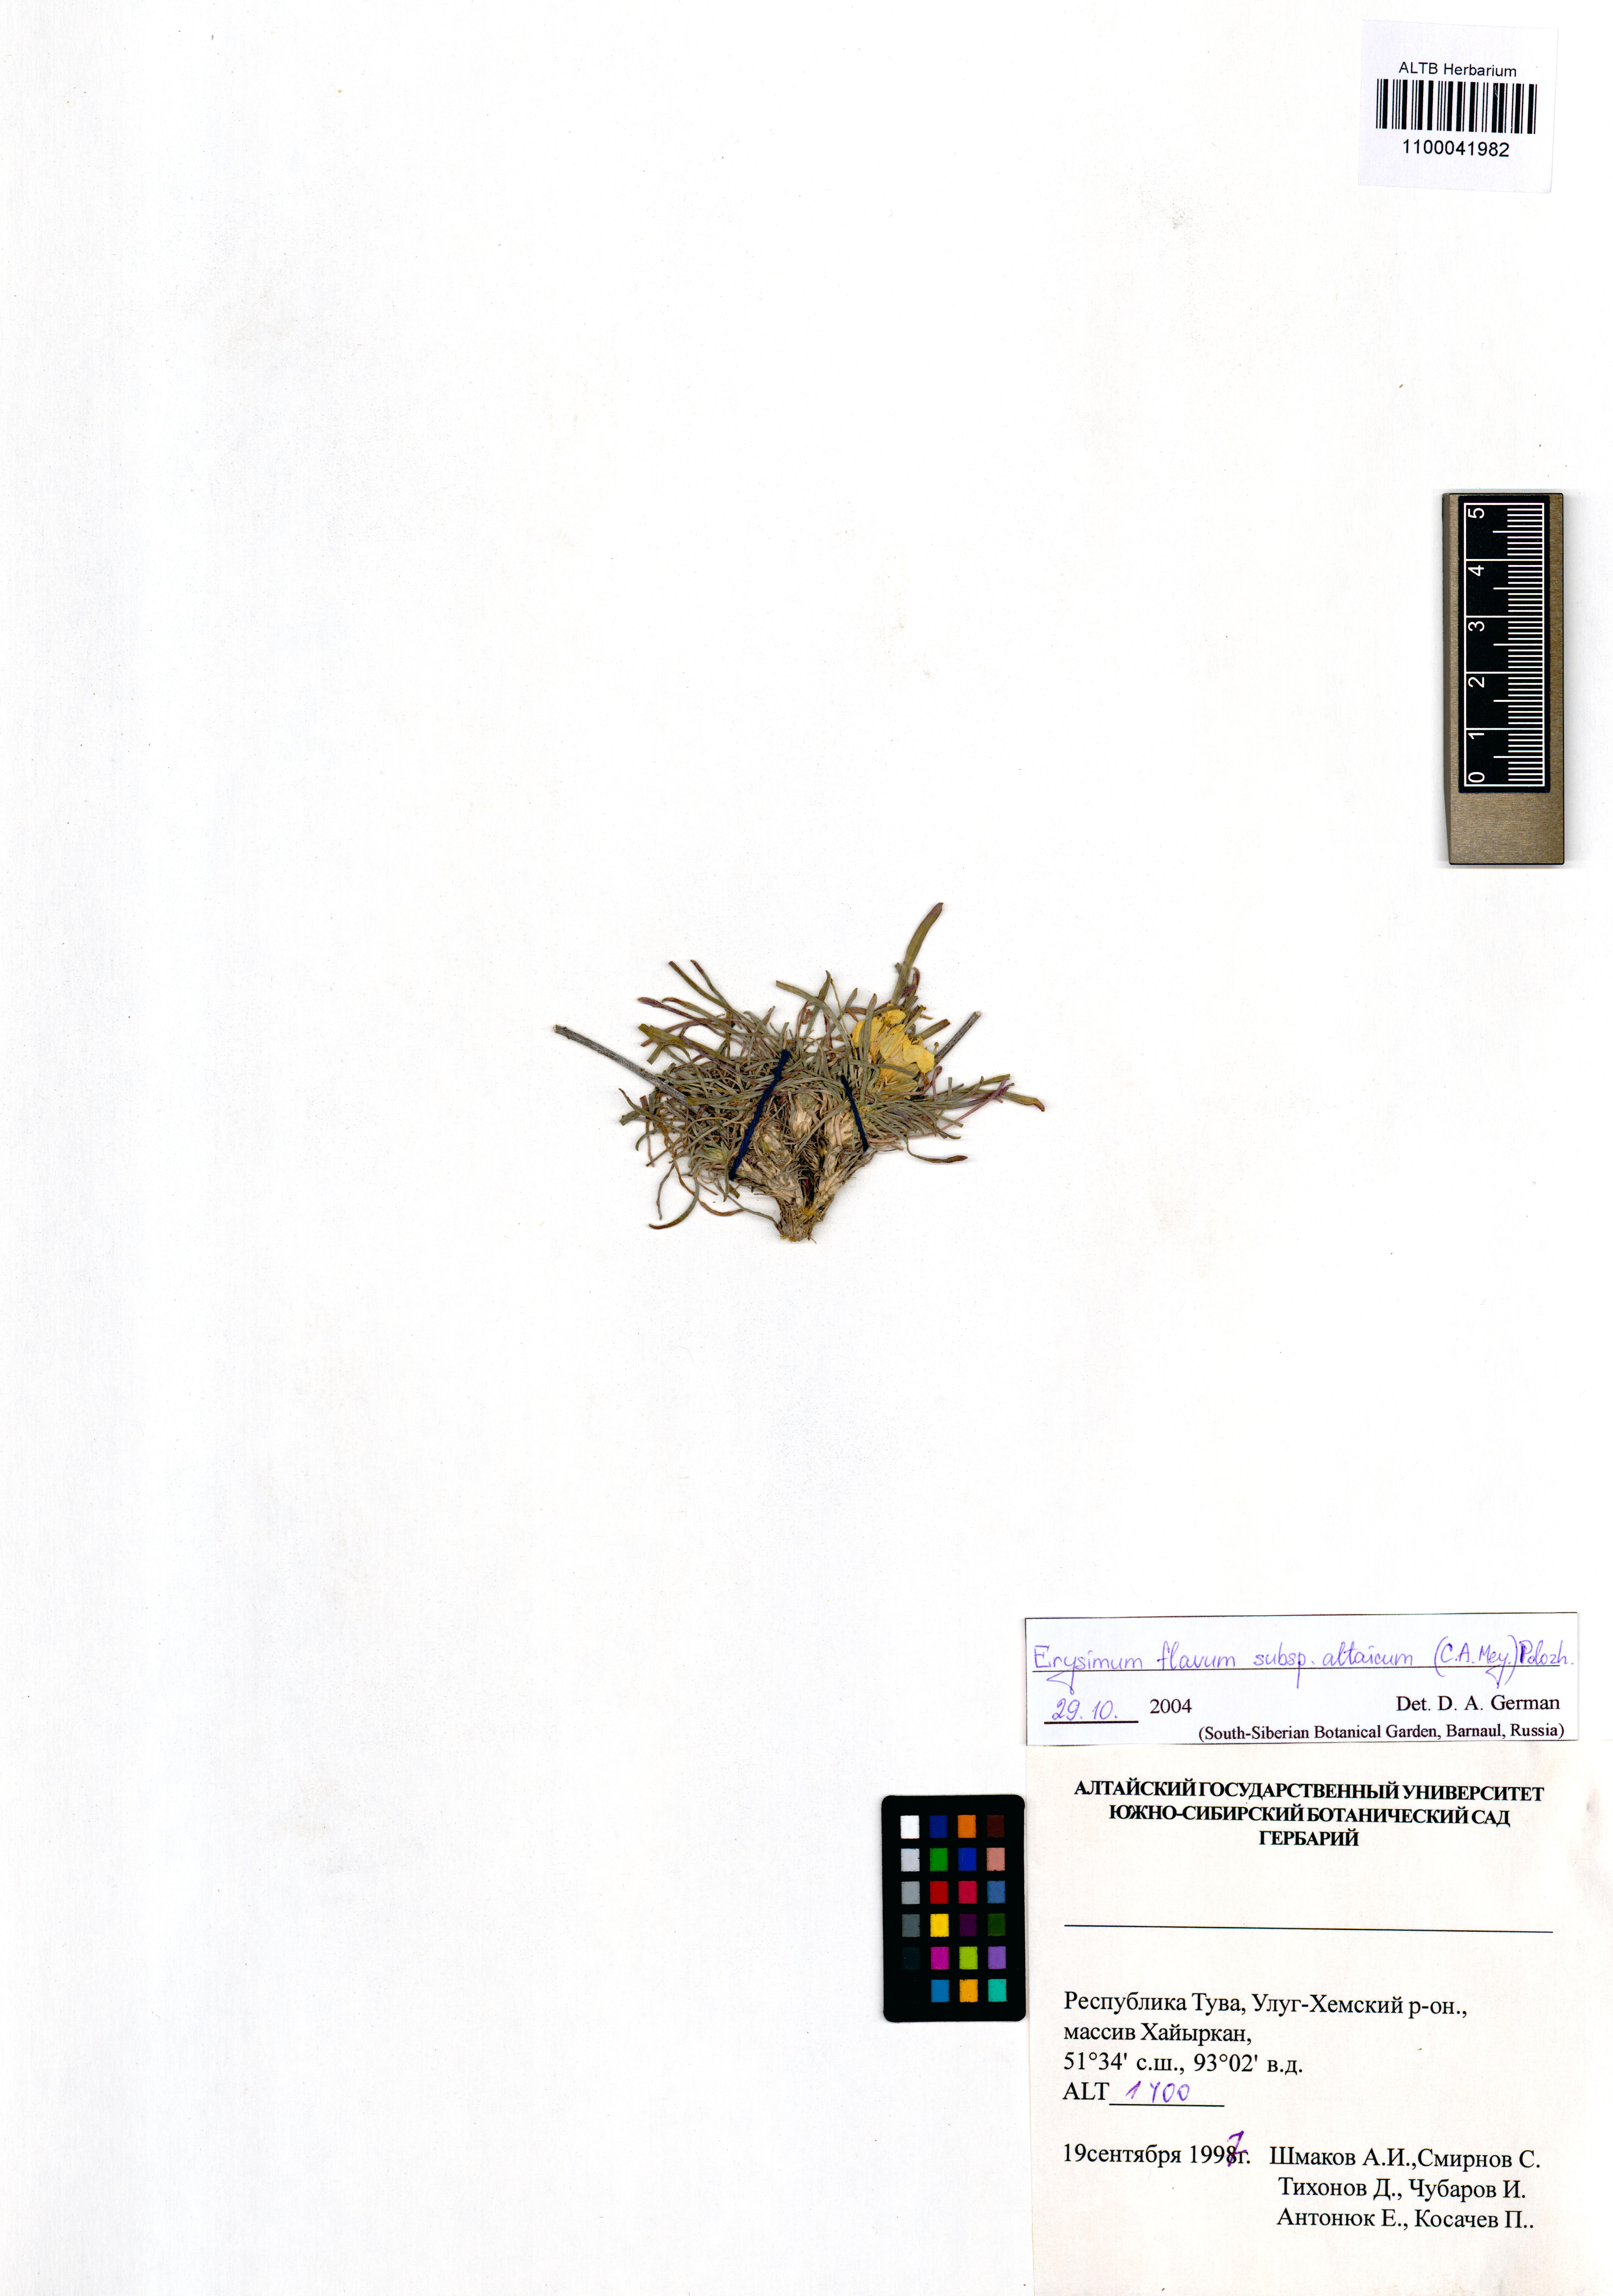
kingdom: Plantae
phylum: Tracheophyta
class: Magnoliopsida
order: Brassicales
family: Brassicaceae
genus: Erysimum
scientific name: Erysimum flavum
